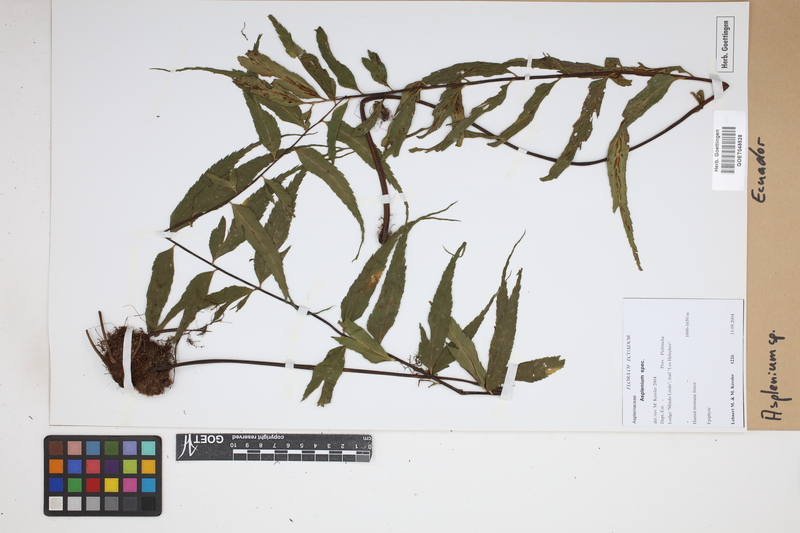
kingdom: Plantae
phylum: Tracheophyta
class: Polypodiopsida
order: Polypodiales
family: Aspleniaceae
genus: Asplenium
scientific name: Asplenium
